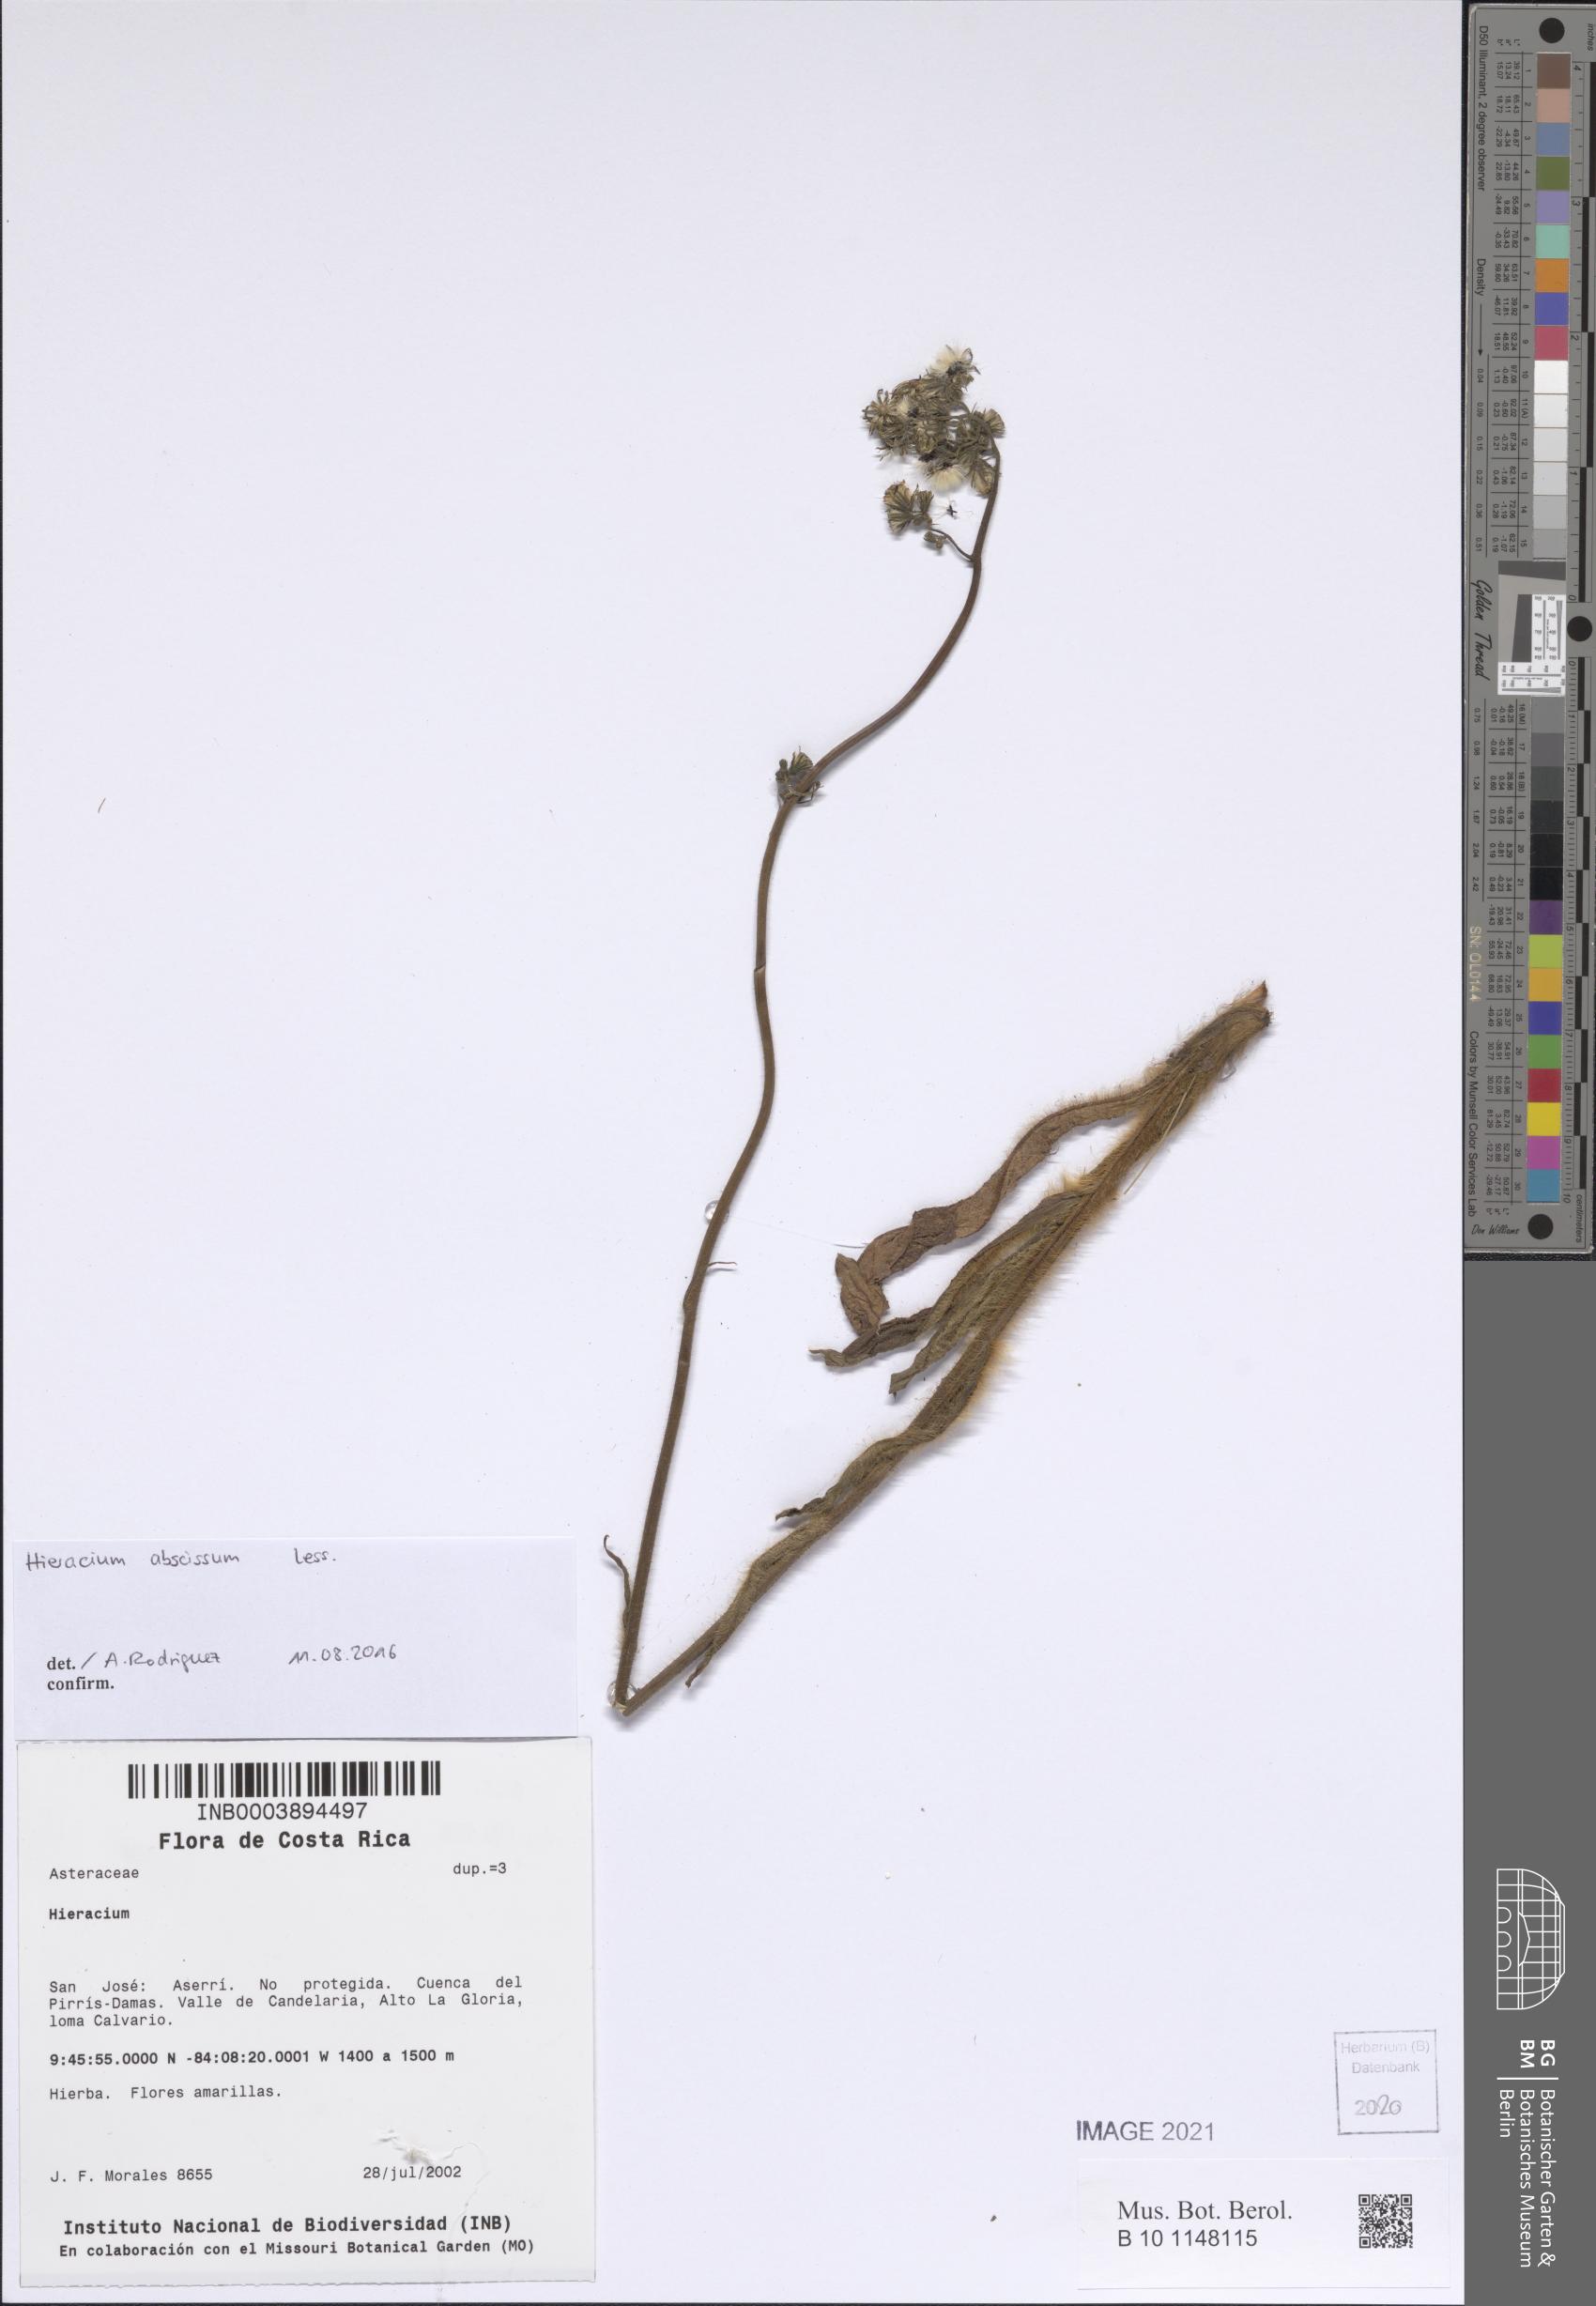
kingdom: Plantae
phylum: Tracheophyta
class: Magnoliopsida
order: Asterales
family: Asteraceae
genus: Hieracium
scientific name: Hieracium
